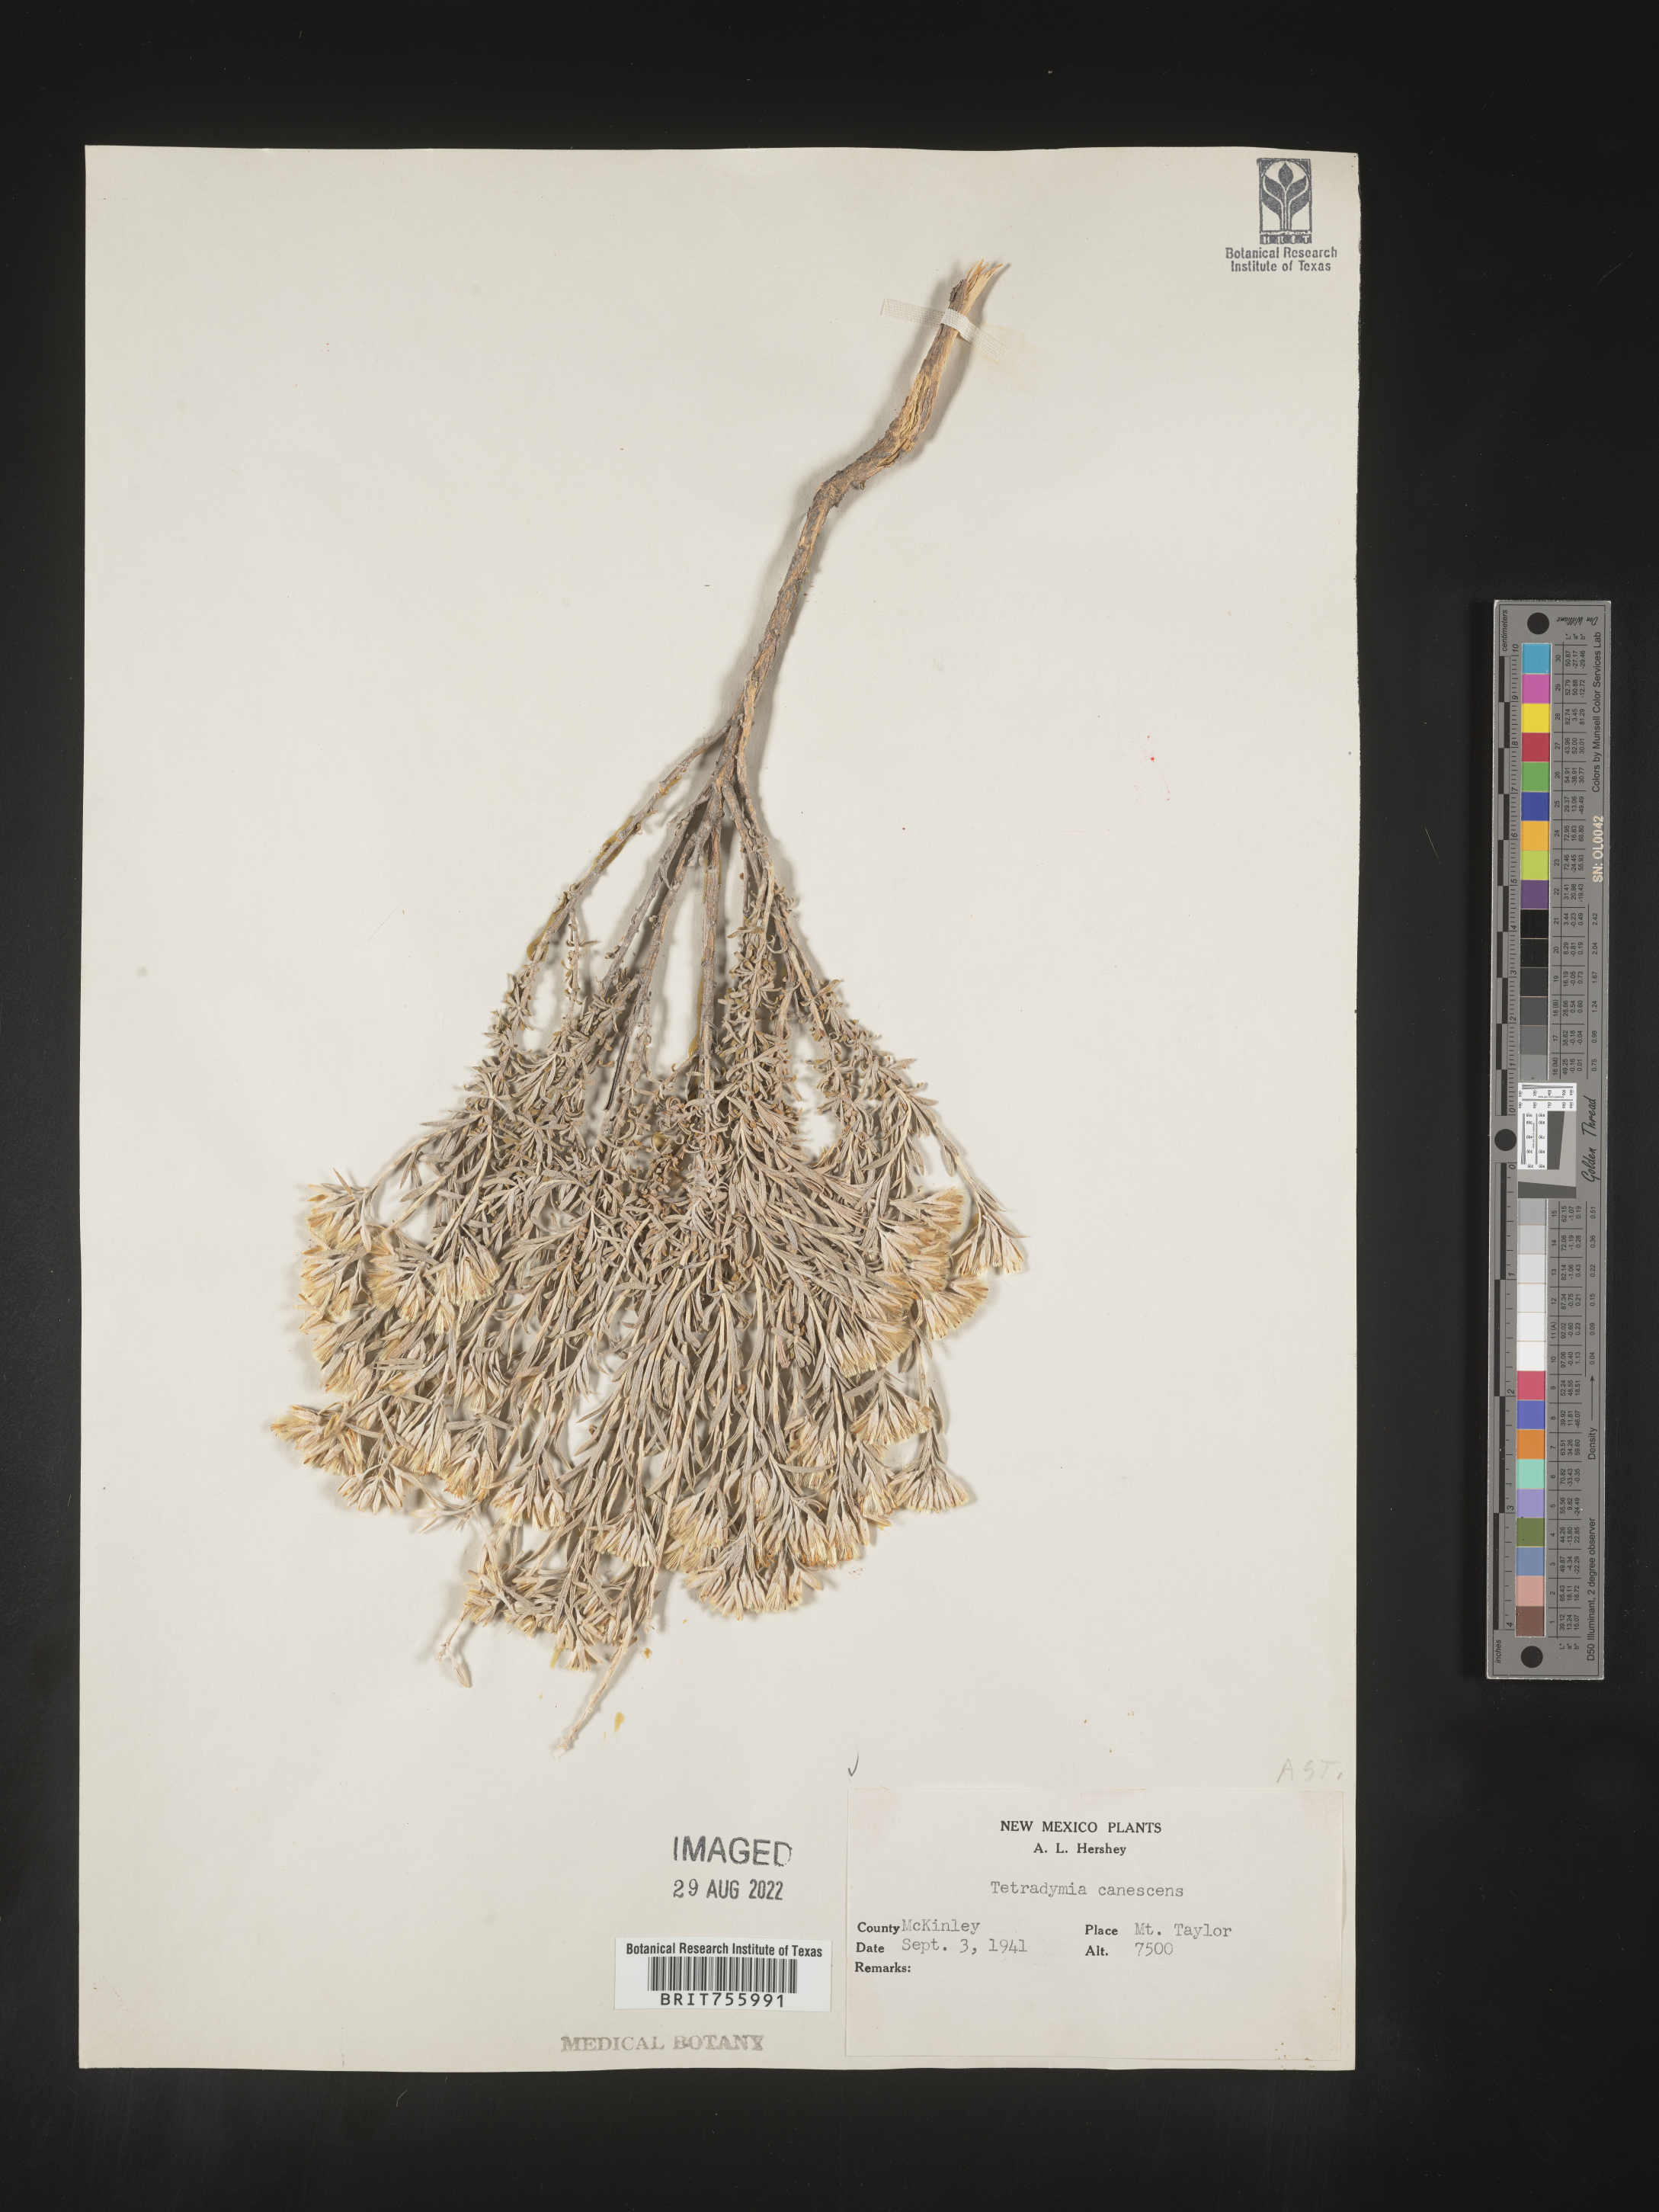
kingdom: Plantae
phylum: Tracheophyta
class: Magnoliopsida
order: Asterales
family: Asteraceae
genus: Tetradymia
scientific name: Tetradymia canescens
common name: Spineless horsebrush
